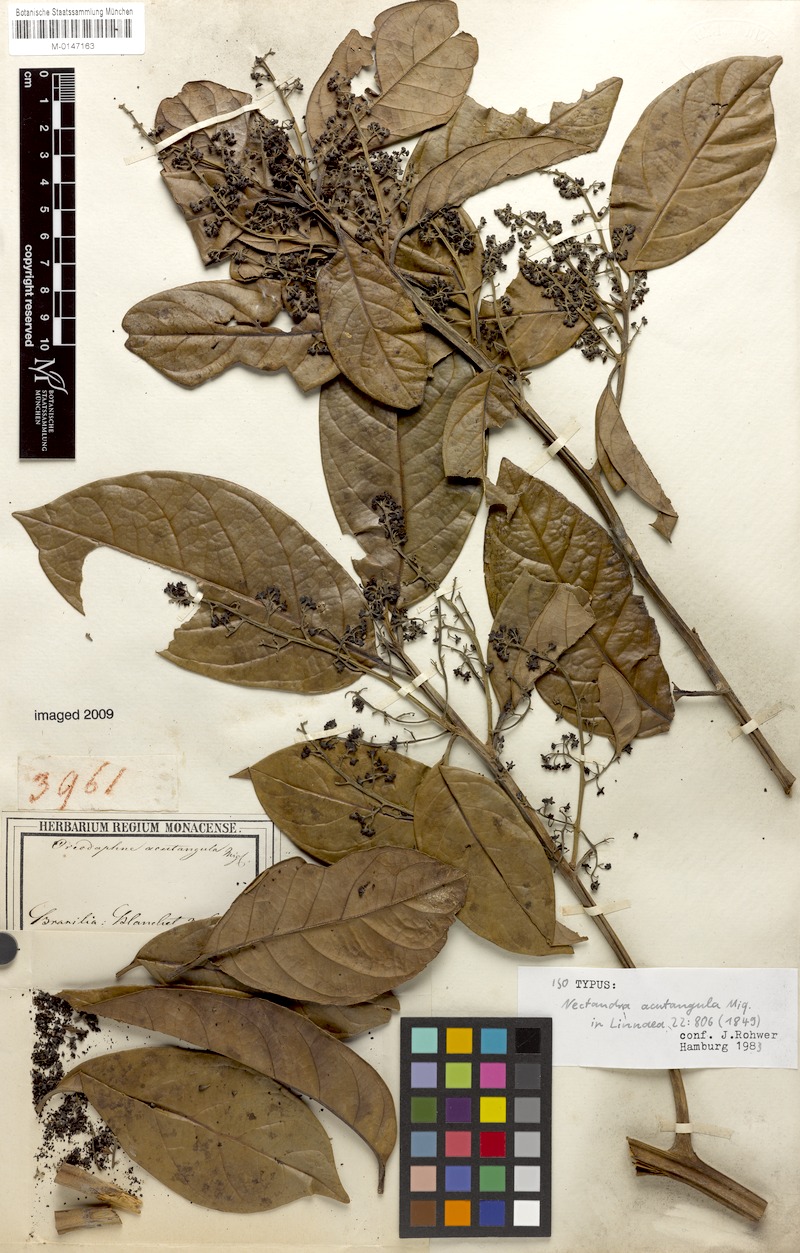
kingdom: Plantae
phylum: Tracheophyta
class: Magnoliopsida
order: Laurales
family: Lauraceae
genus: Ocotea
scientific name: Ocotea acutangula
